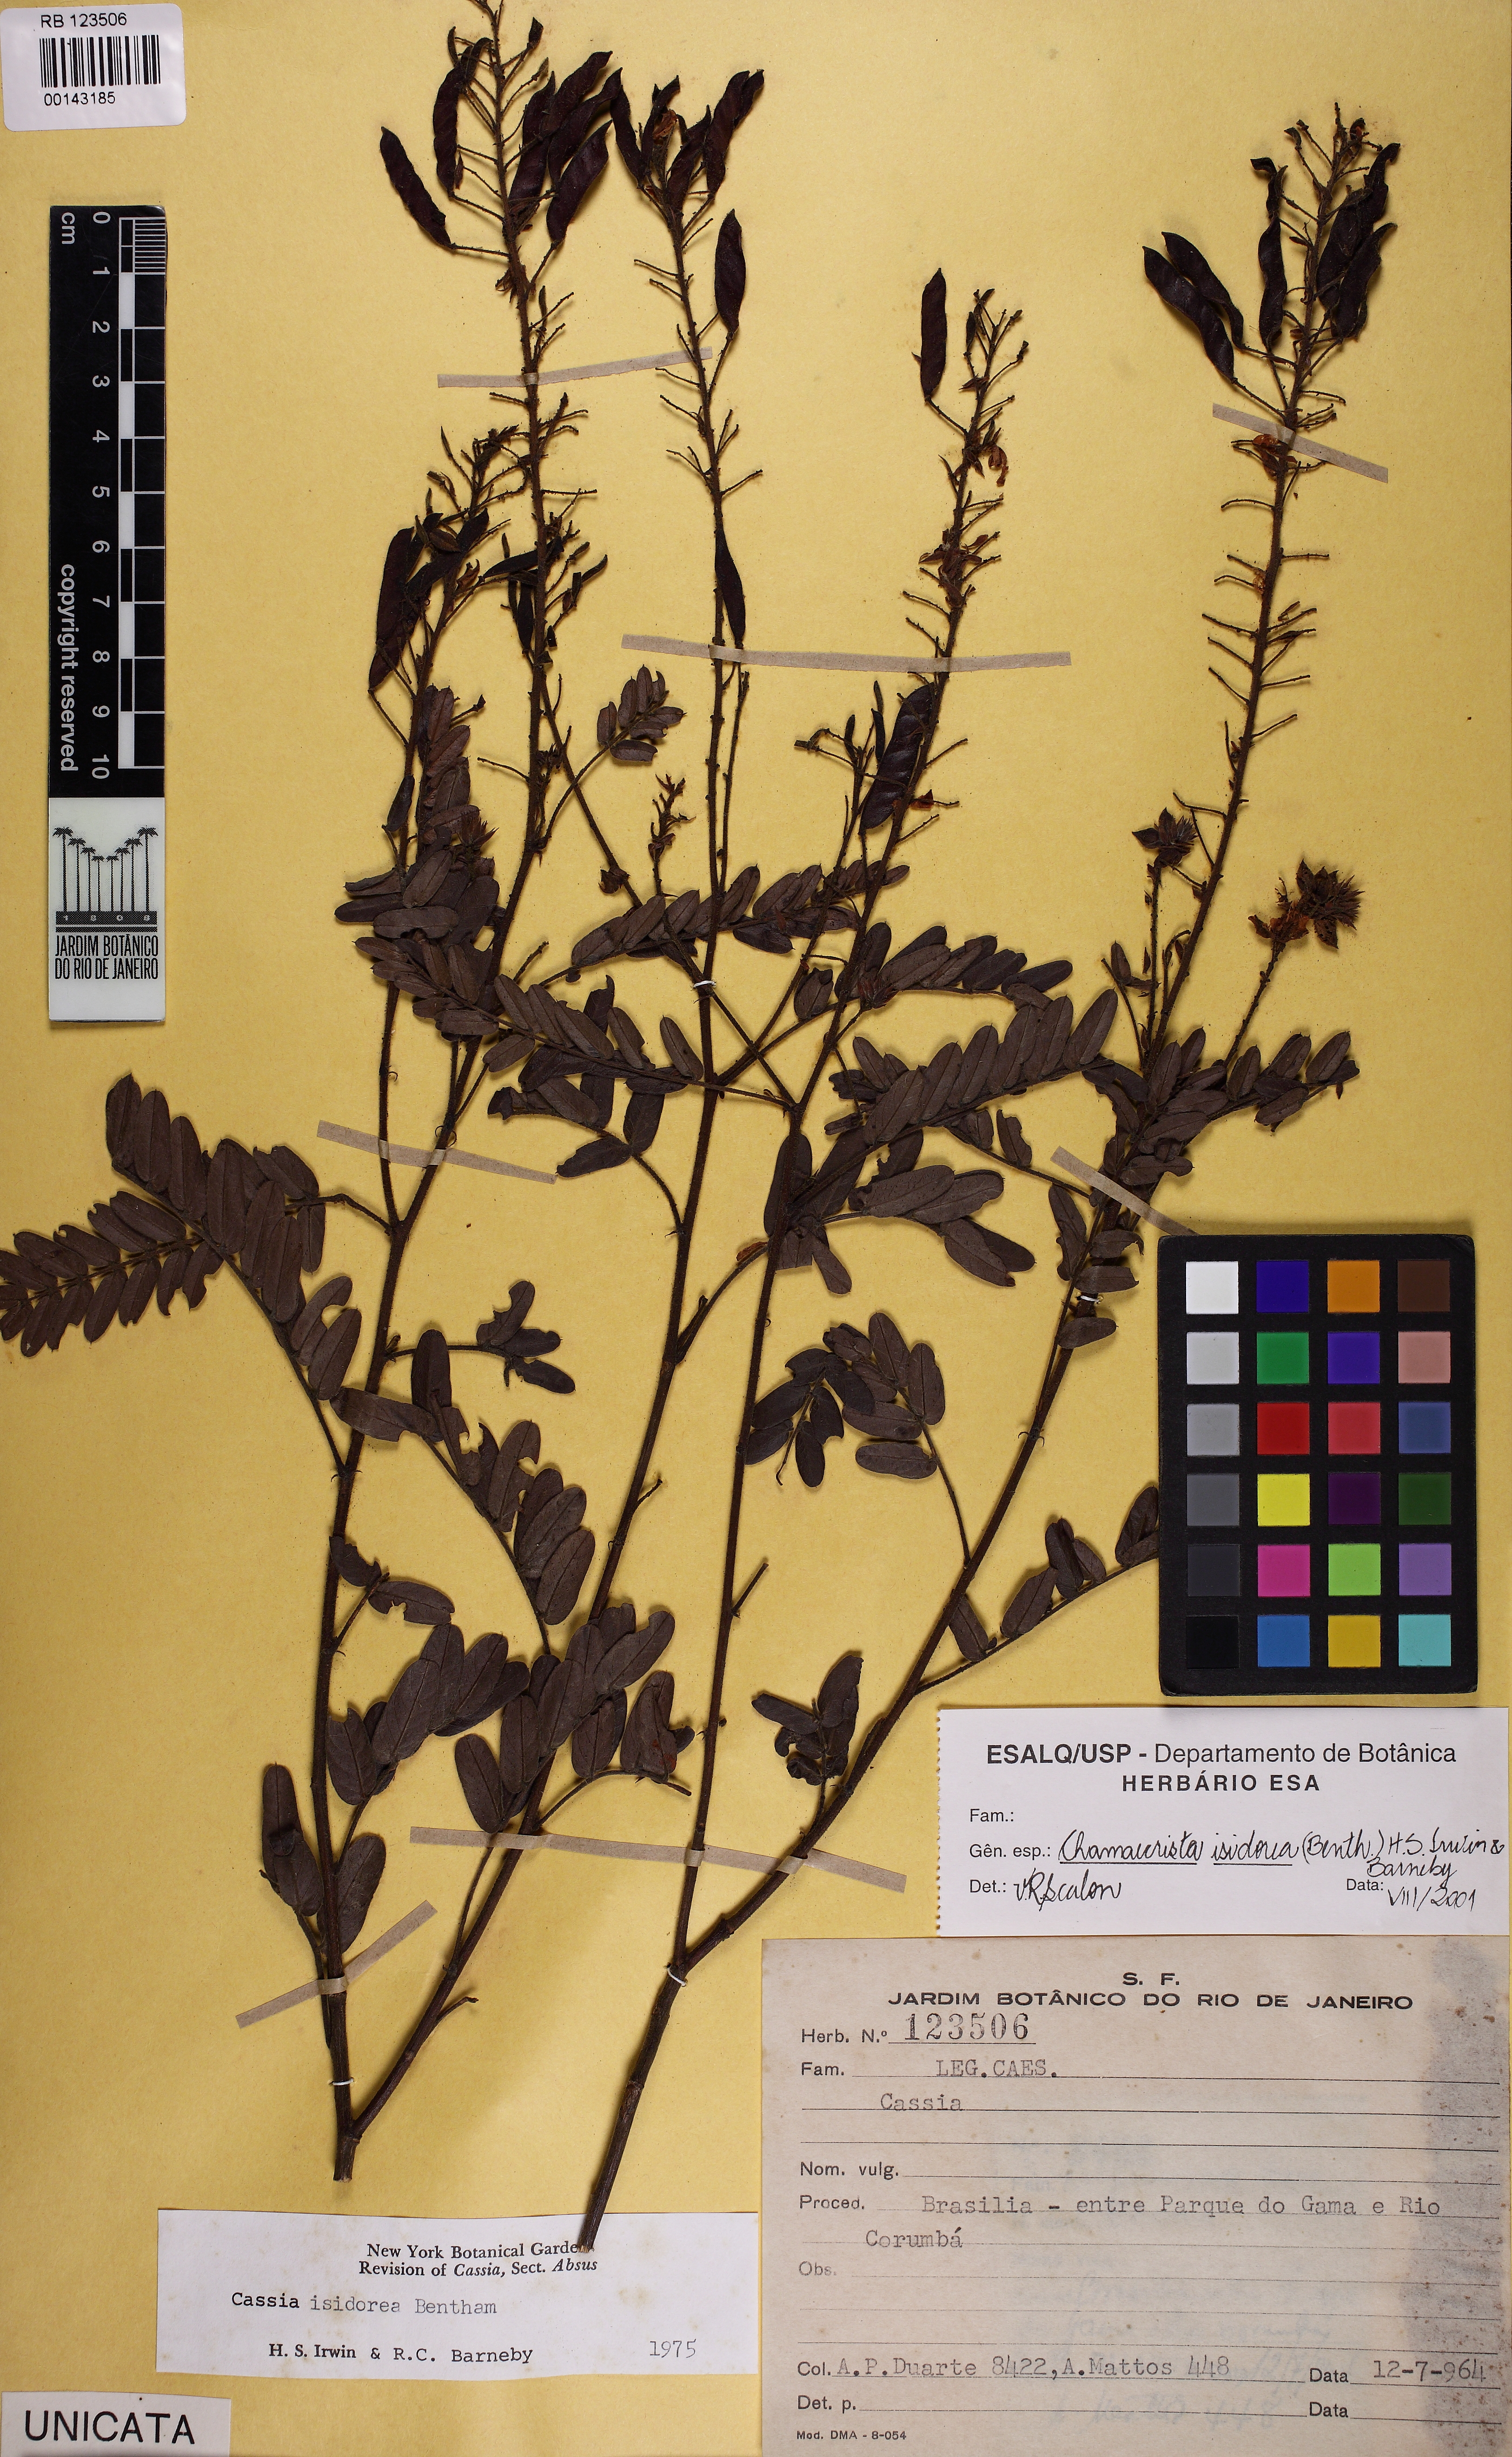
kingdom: Plantae
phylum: Tracheophyta
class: Magnoliopsida
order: Fabales
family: Fabaceae
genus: Chamaecrista
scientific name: Chamaecrista isidorea
